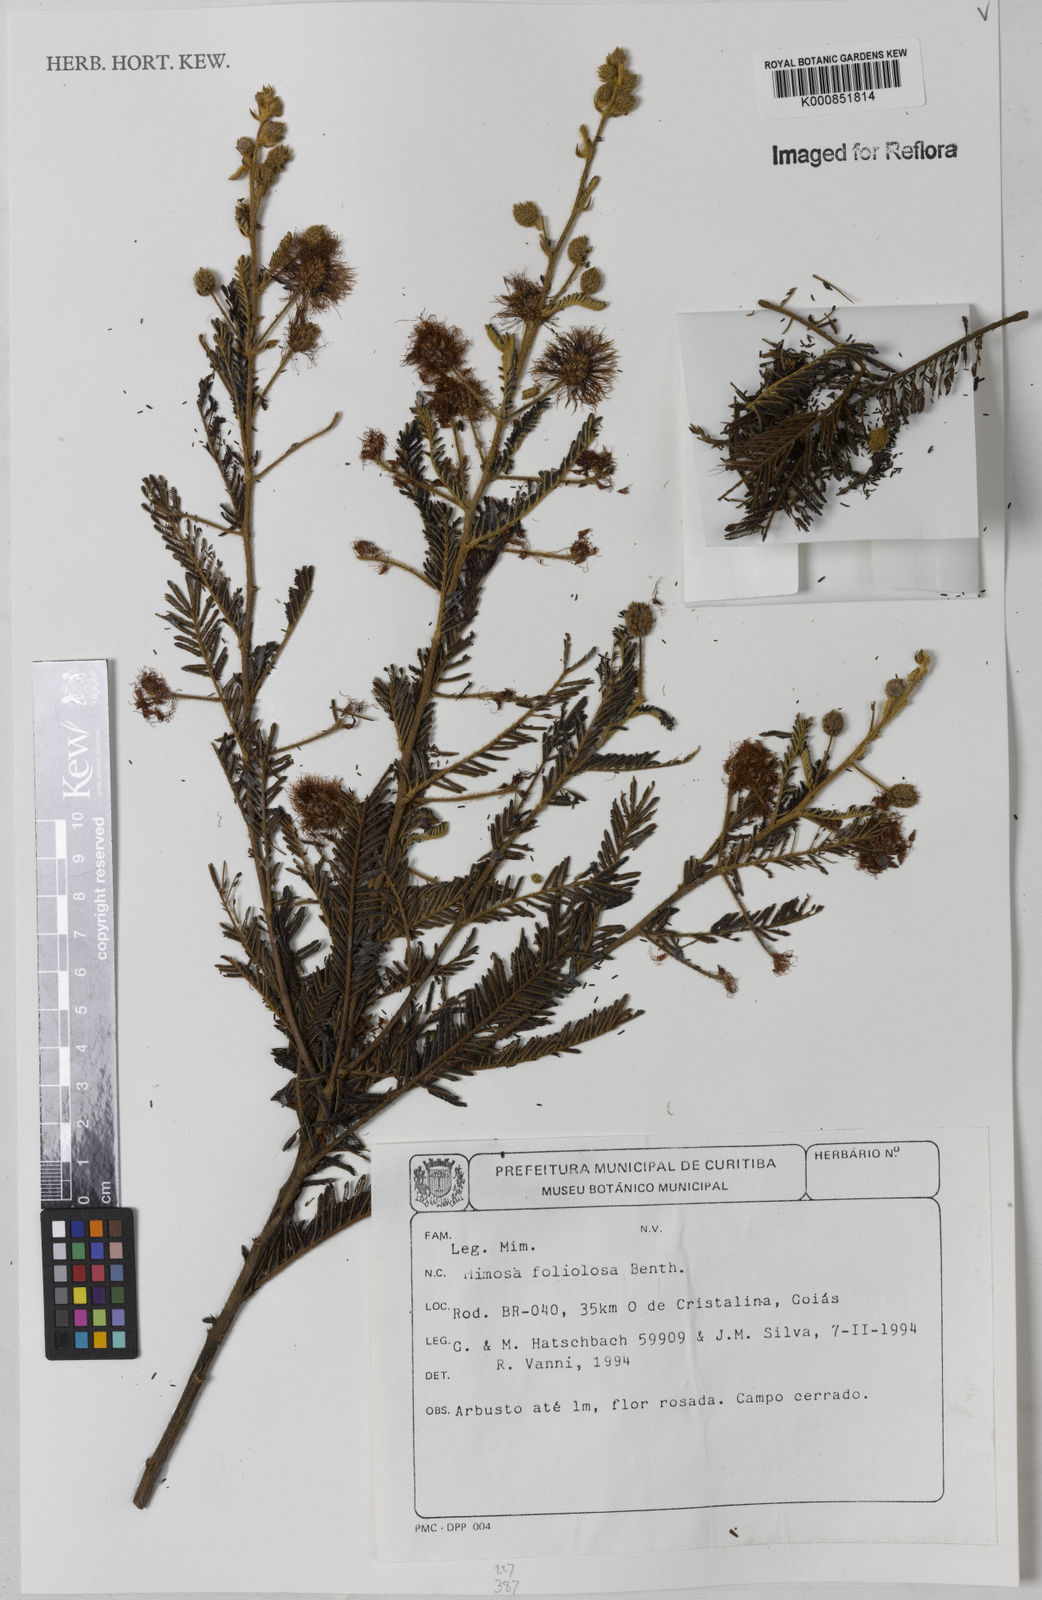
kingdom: Plantae
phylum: Tracheophyta
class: Magnoliopsida
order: Fabales
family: Fabaceae
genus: Mimosa
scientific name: Mimosa foliolosa
